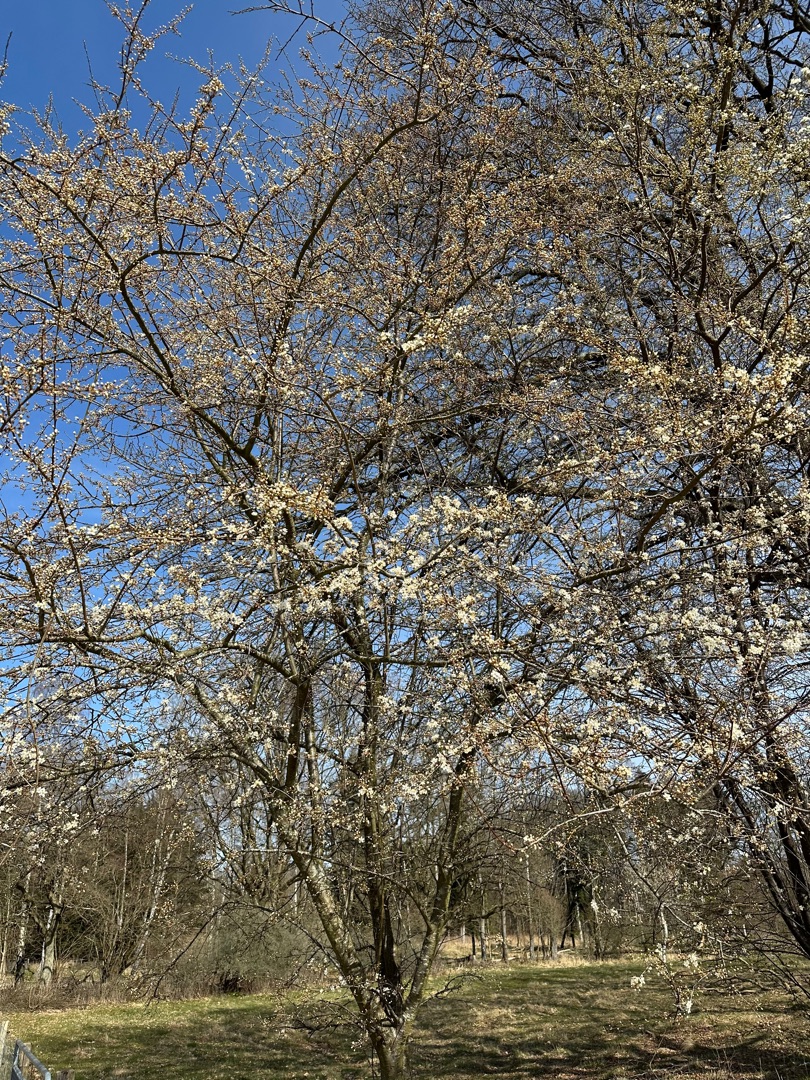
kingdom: Plantae
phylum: Tracheophyta
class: Magnoliopsida
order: Rosales
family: Rosaceae
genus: Prunus
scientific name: Prunus cerasifera
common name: Mirabel
